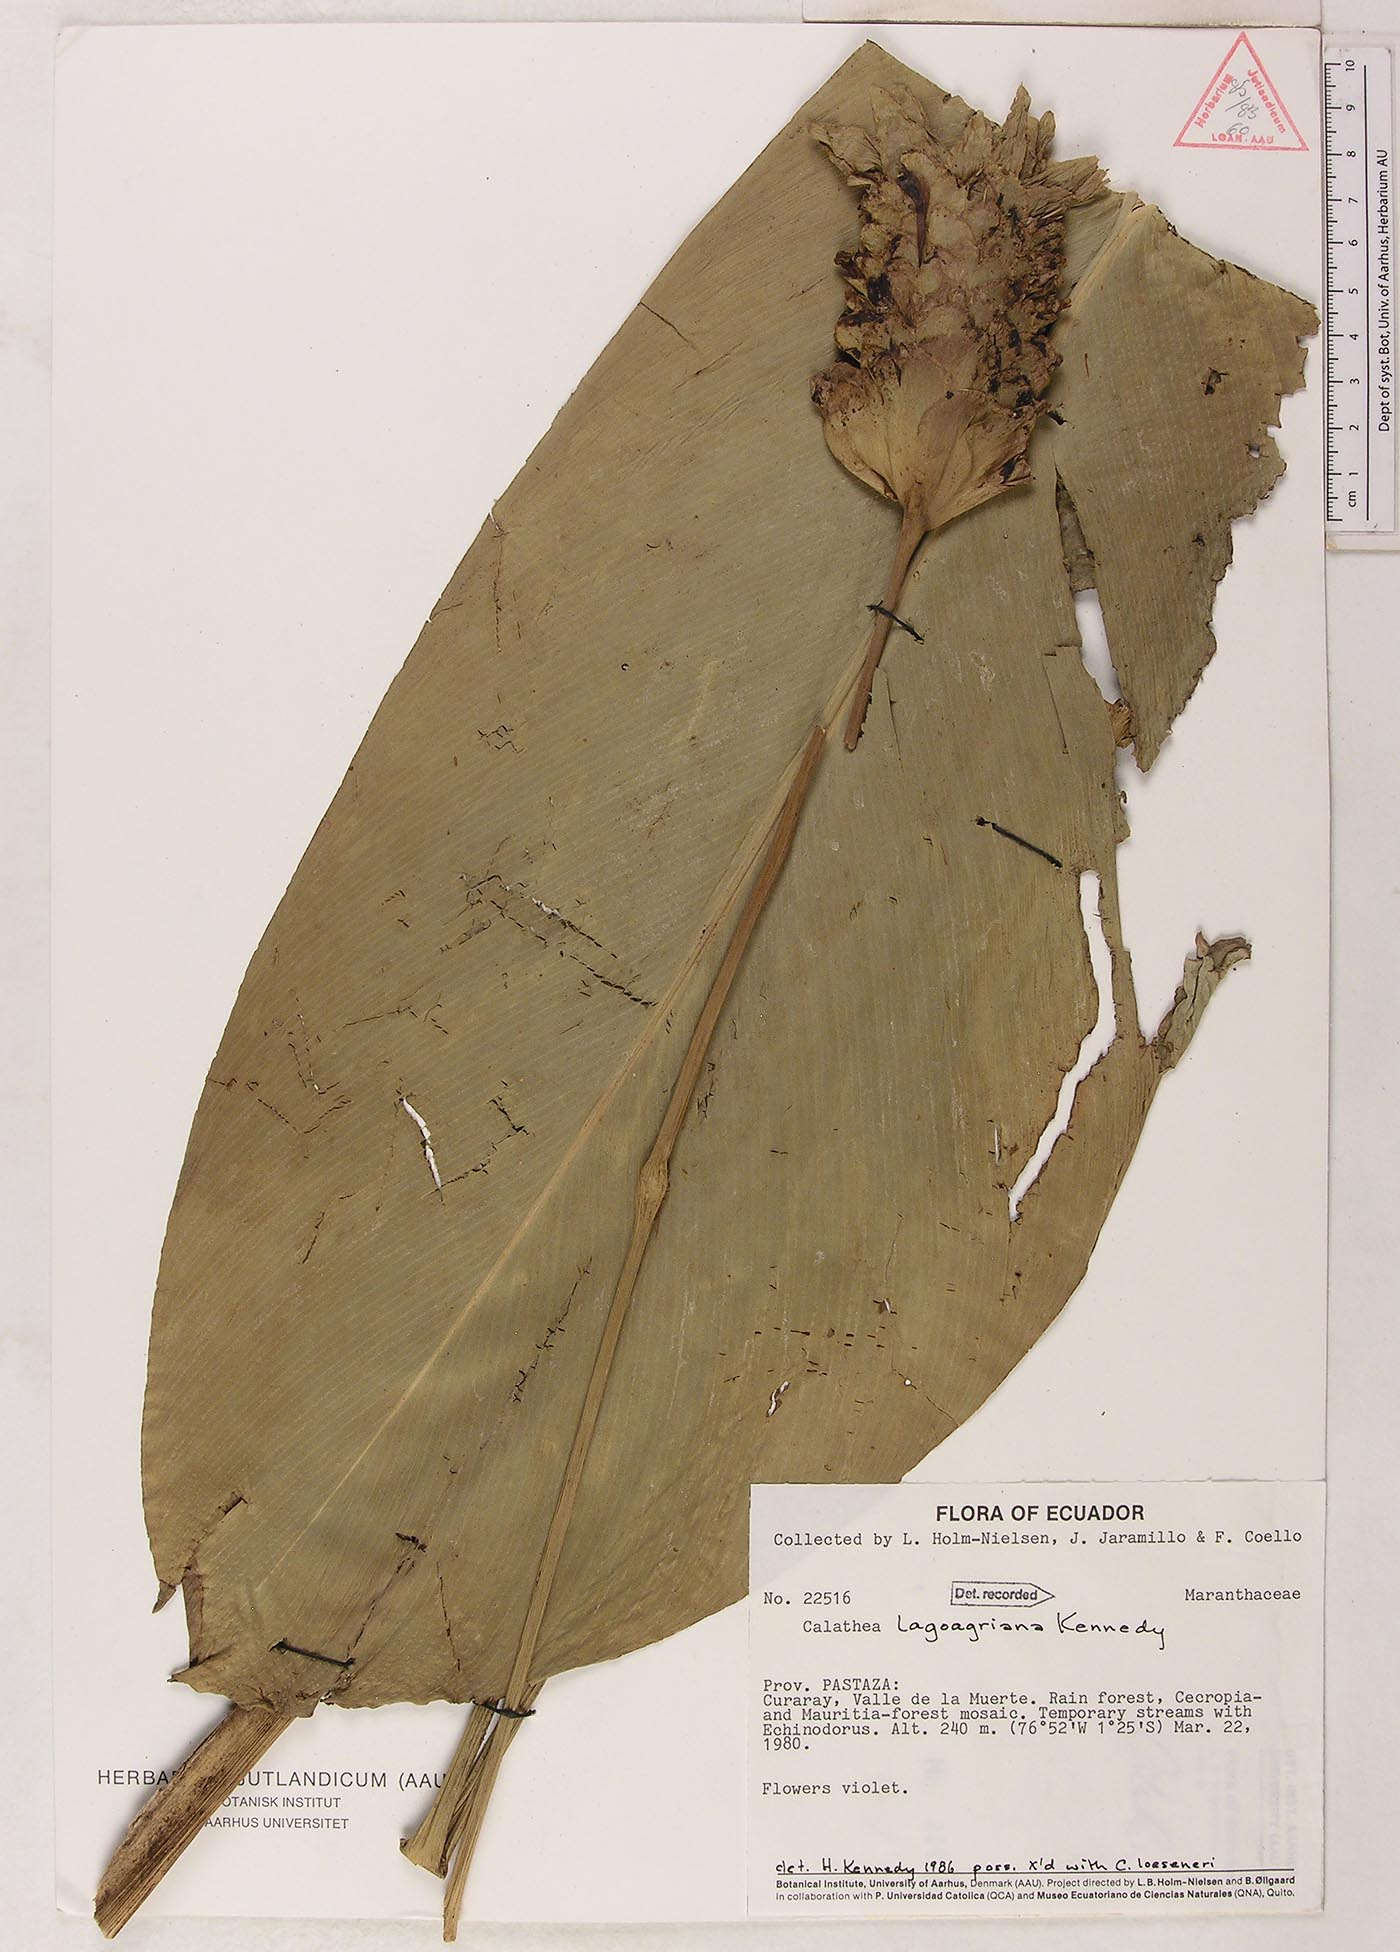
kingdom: Plantae
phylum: Tracheophyta
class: Liliopsida
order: Zingiberales
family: Marantaceae
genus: Goeppertia
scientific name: Goeppertia lagoagriana
